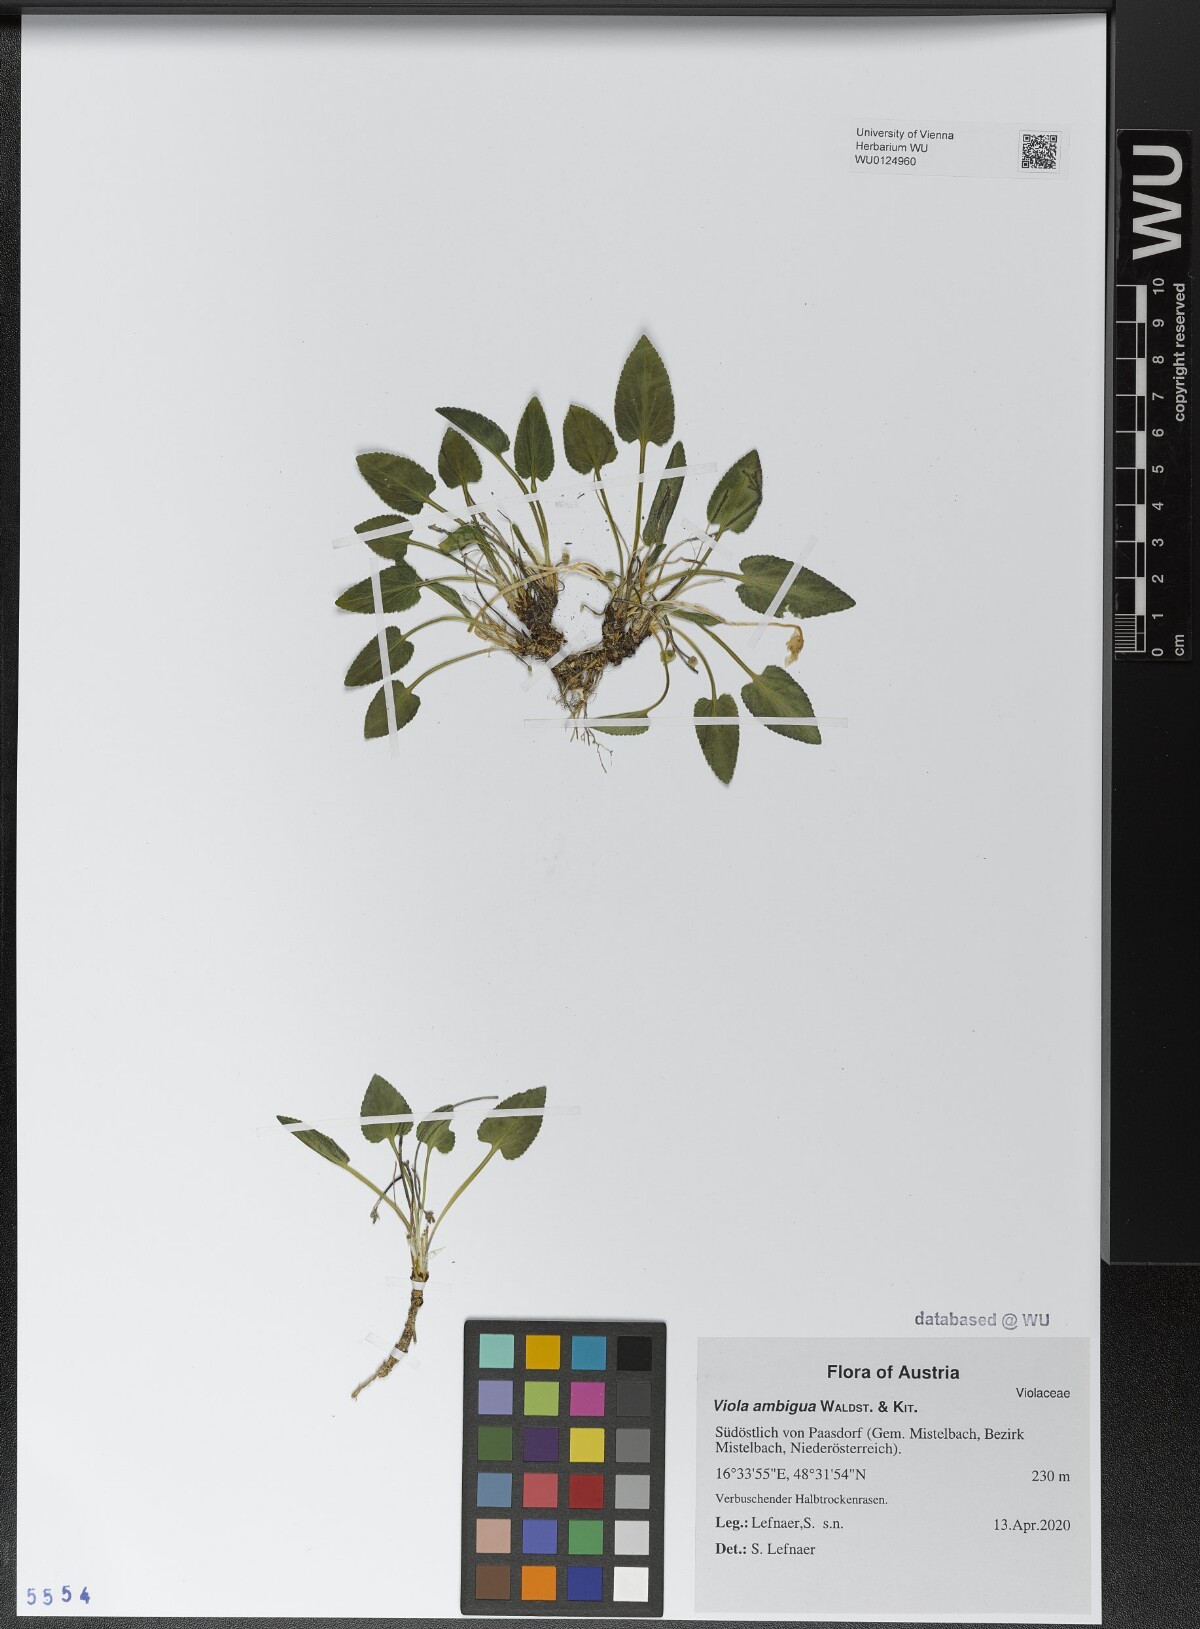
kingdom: Plantae
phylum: Tracheophyta
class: Magnoliopsida
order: Malpighiales
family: Violaceae
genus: Viola
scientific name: Viola ambigua
